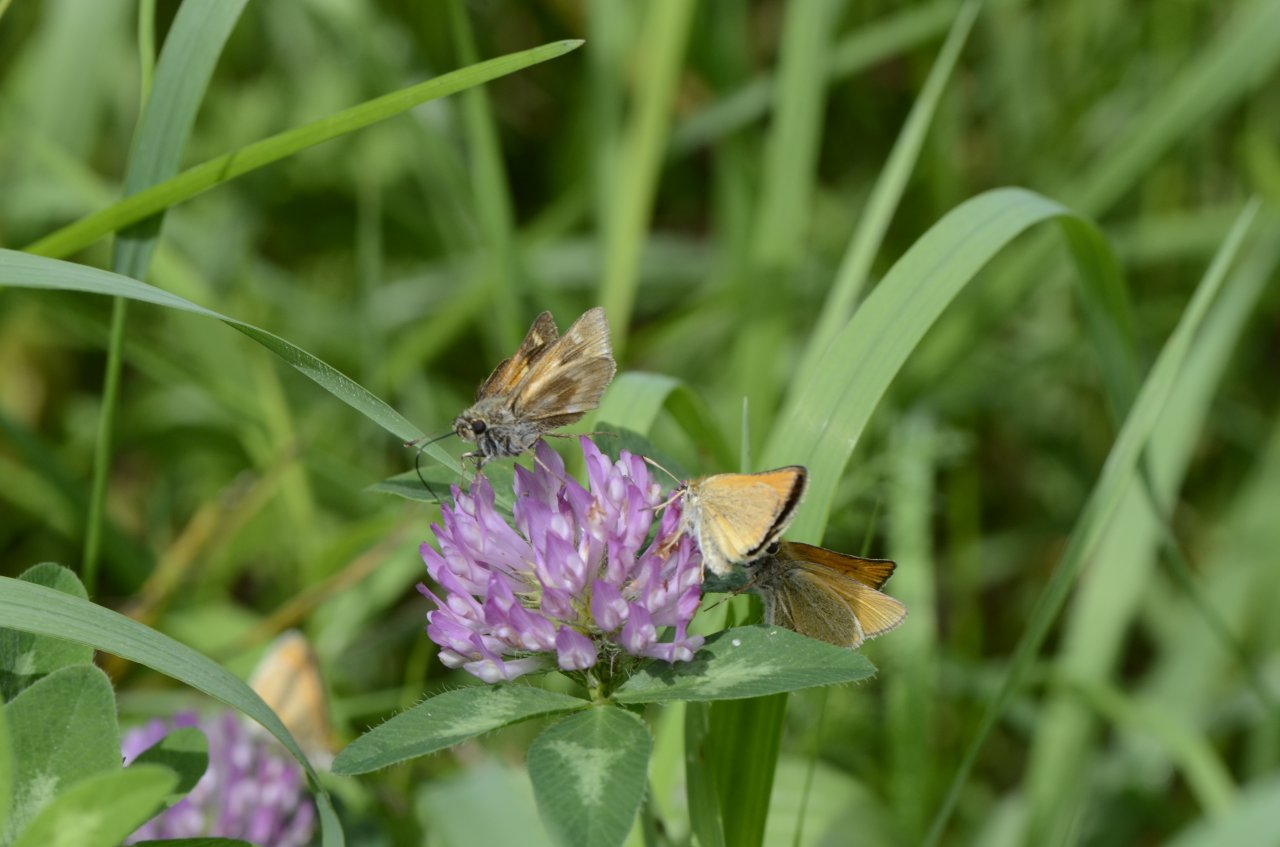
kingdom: Animalia
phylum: Arthropoda
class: Insecta
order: Lepidoptera
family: Hesperiidae
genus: Polites
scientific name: Polites
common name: Long Dash Skipper
